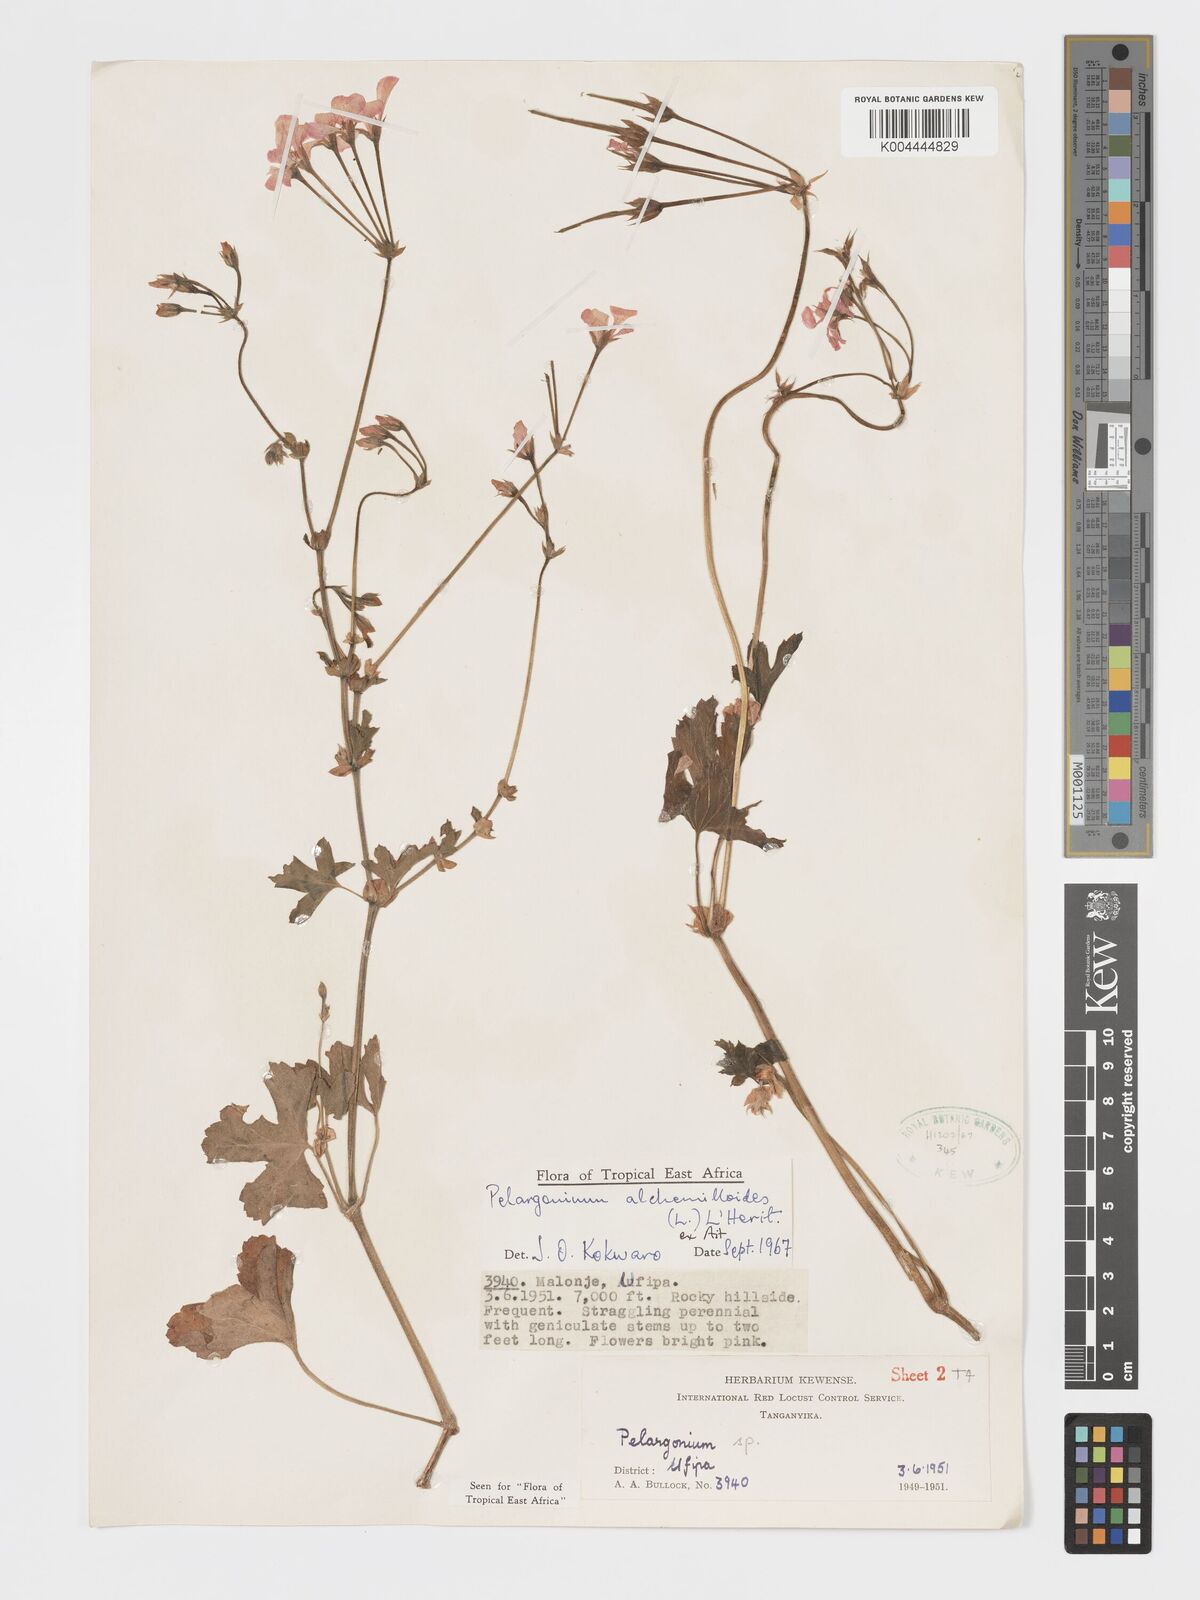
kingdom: Plantae
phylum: Tracheophyta
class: Magnoliopsida
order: Geraniales
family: Geraniaceae
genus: Pelargonium
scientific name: Pelargonium multibracteatum
